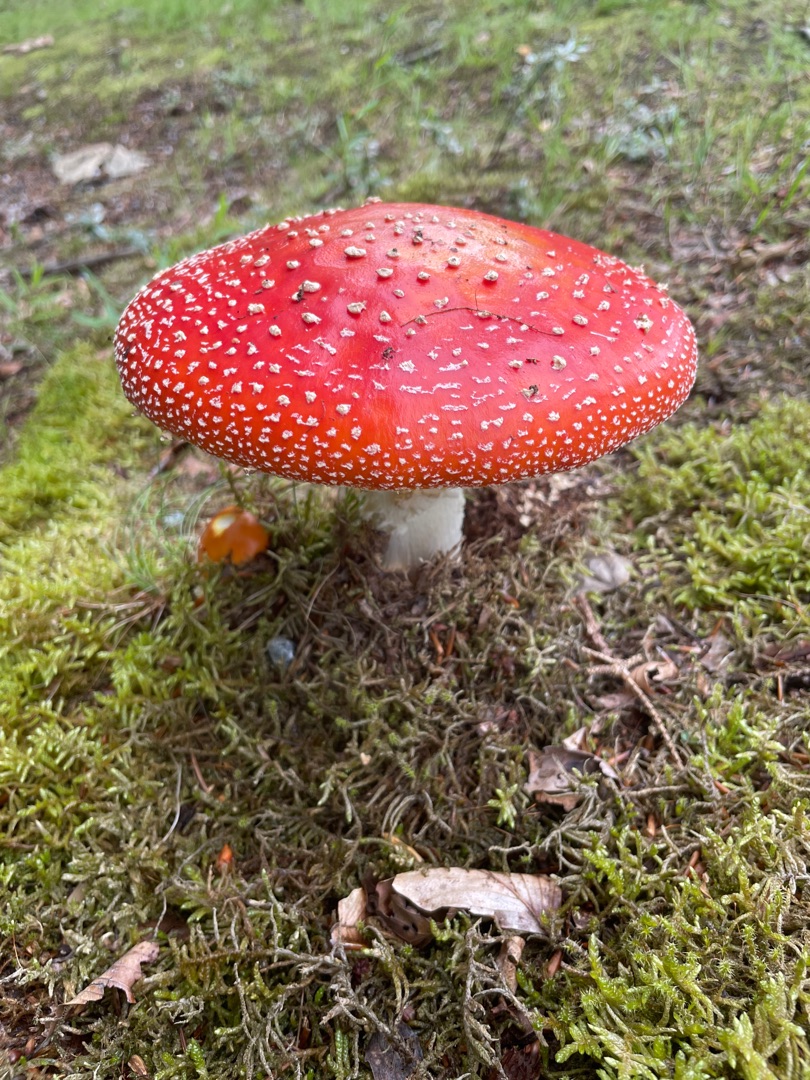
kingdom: Fungi
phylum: Basidiomycota
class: Agaricomycetes
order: Agaricales
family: Amanitaceae
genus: Amanita
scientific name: Amanita muscaria
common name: Rød fluesvamp
